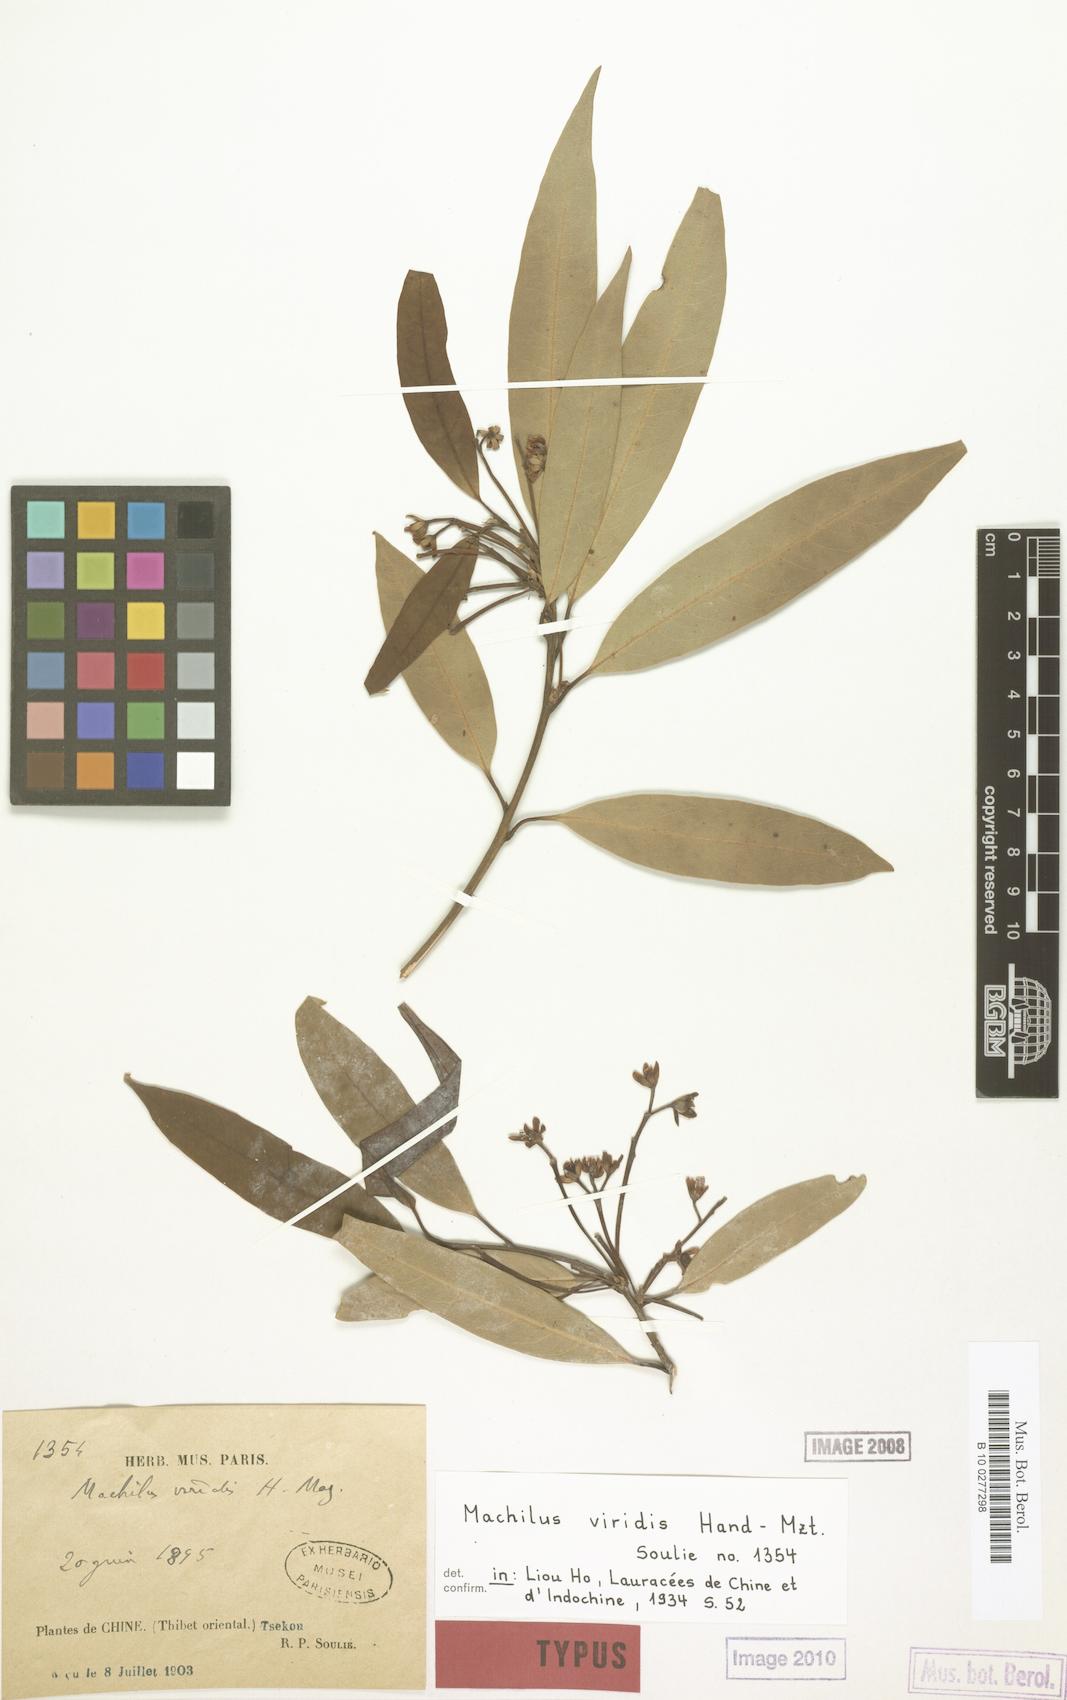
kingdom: Plantae
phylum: Tracheophyta
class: Magnoliopsida
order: Laurales
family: Lauraceae
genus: Machilus
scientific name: Machilus viridis
